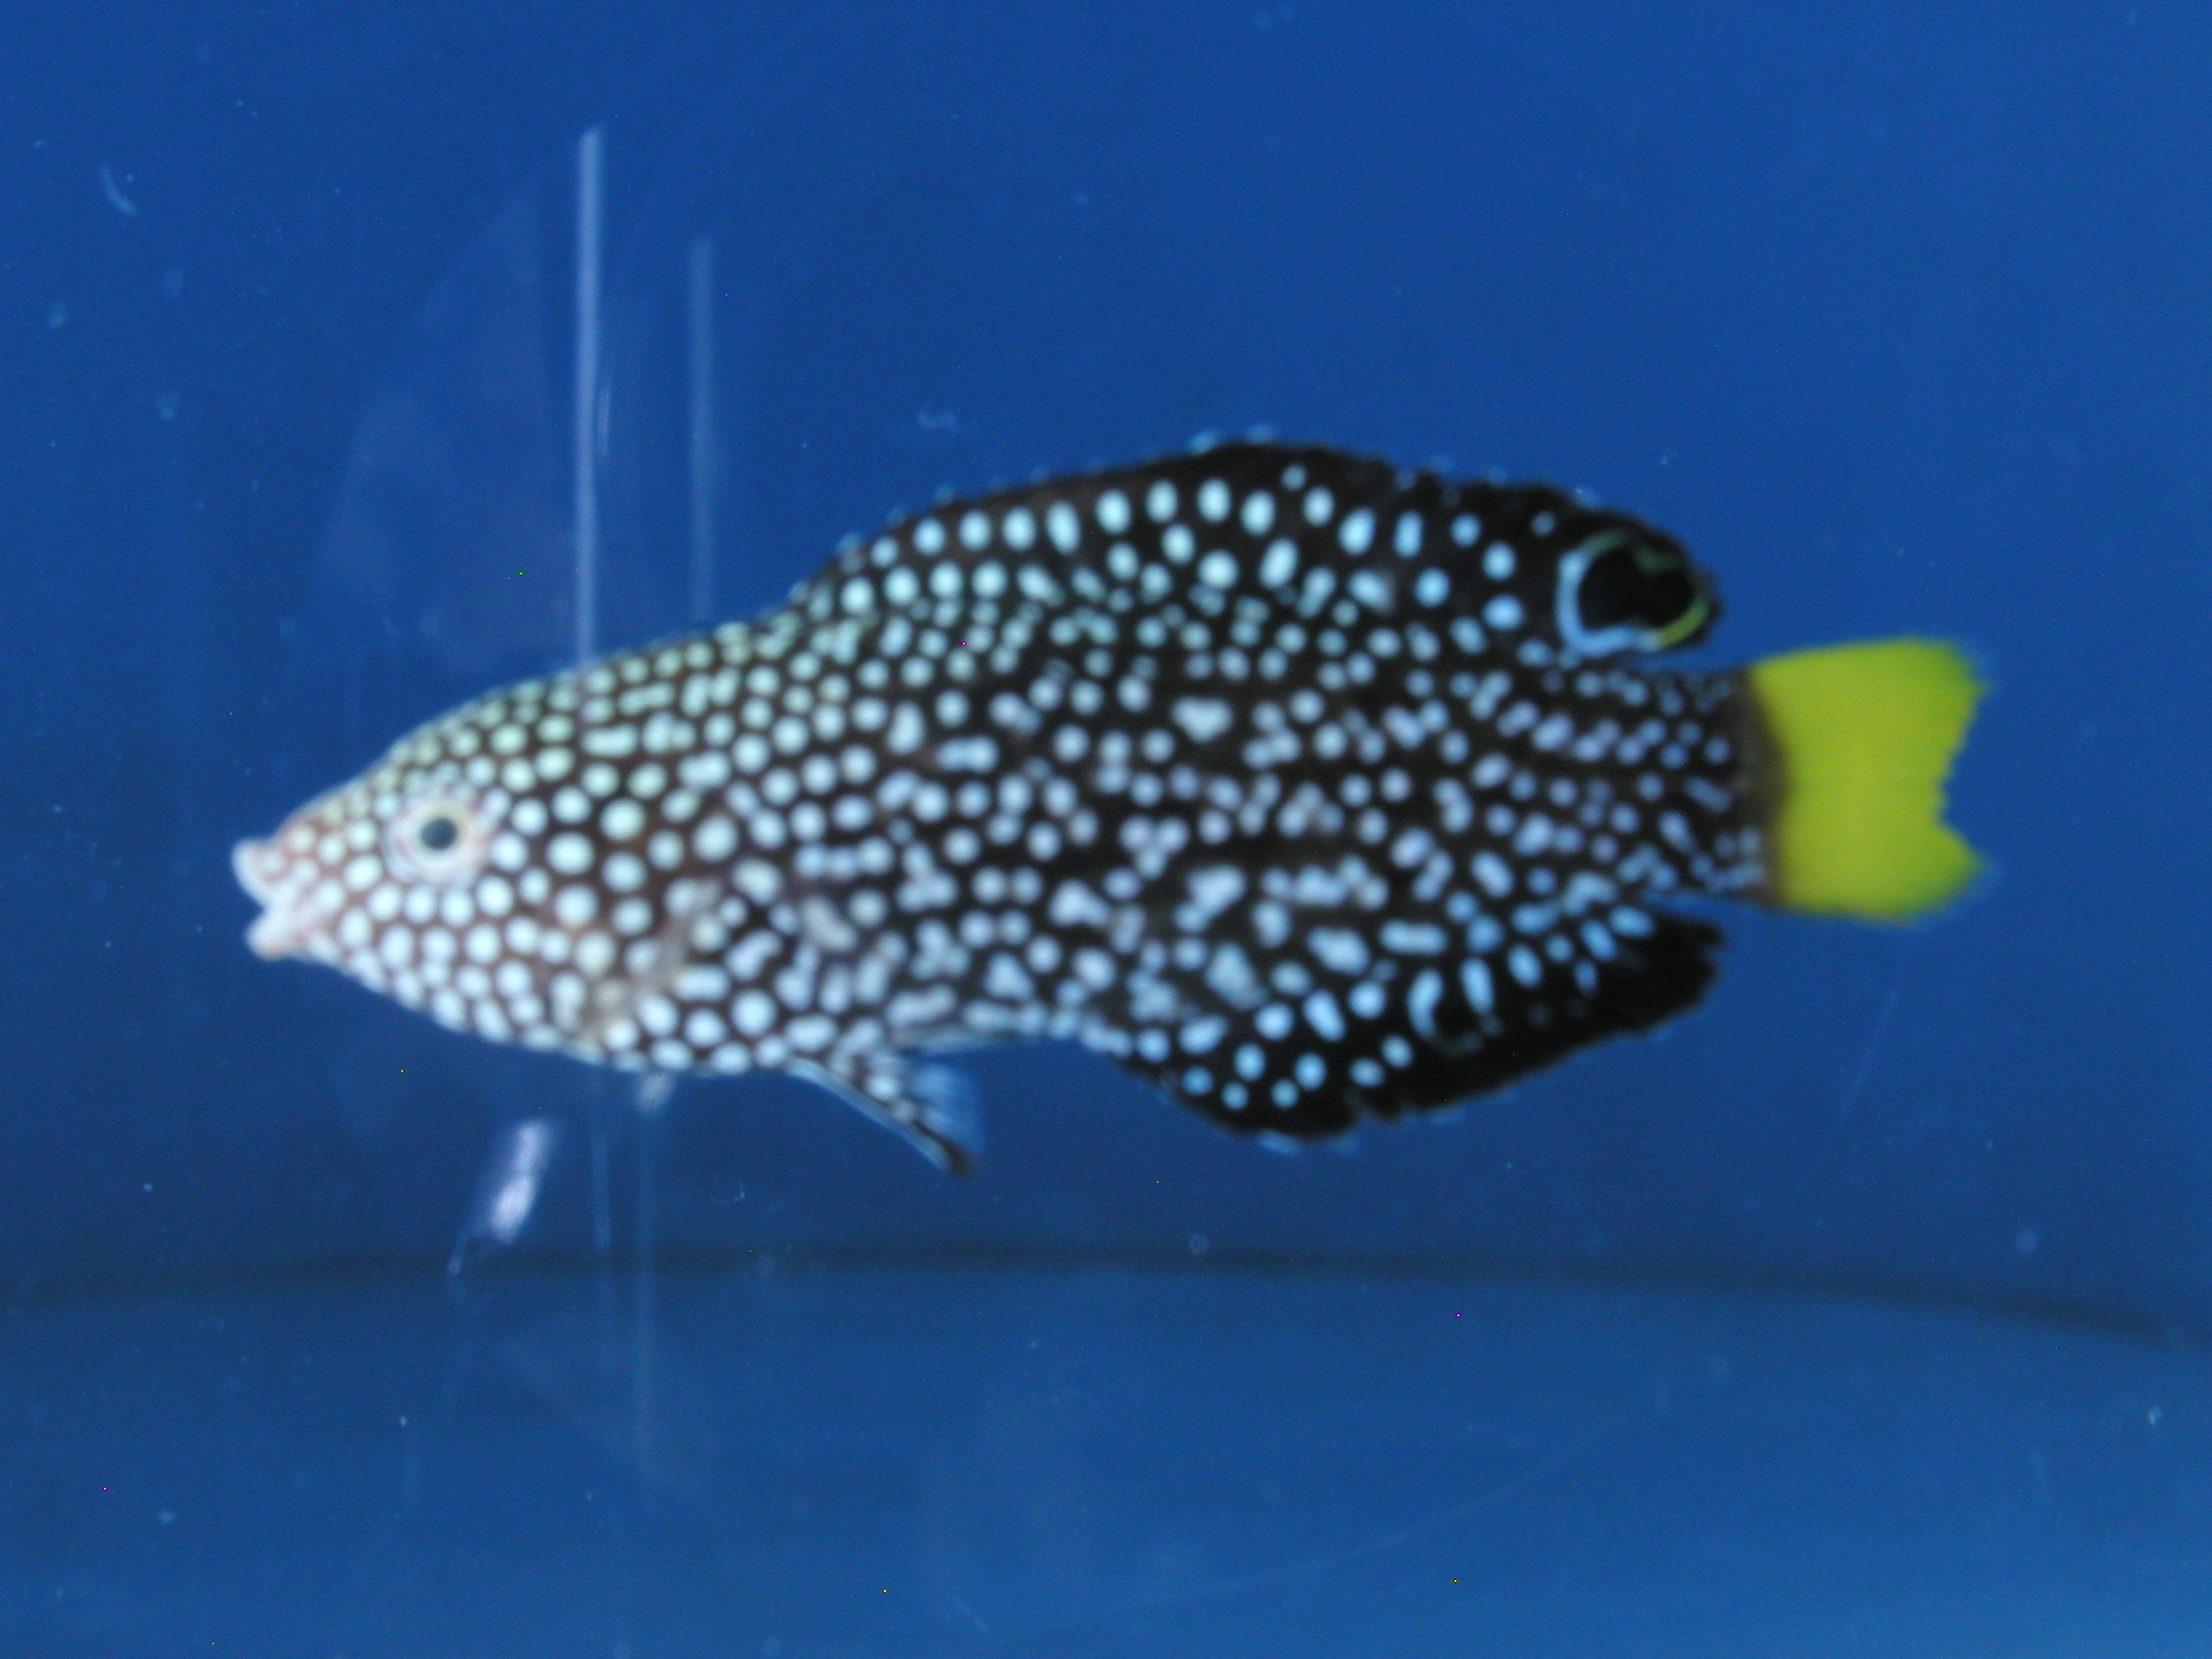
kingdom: Animalia
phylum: Chordata
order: Perciformes
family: Labridae
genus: Anampses
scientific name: Anampses meleagrides
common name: Yellowtail wrasse
